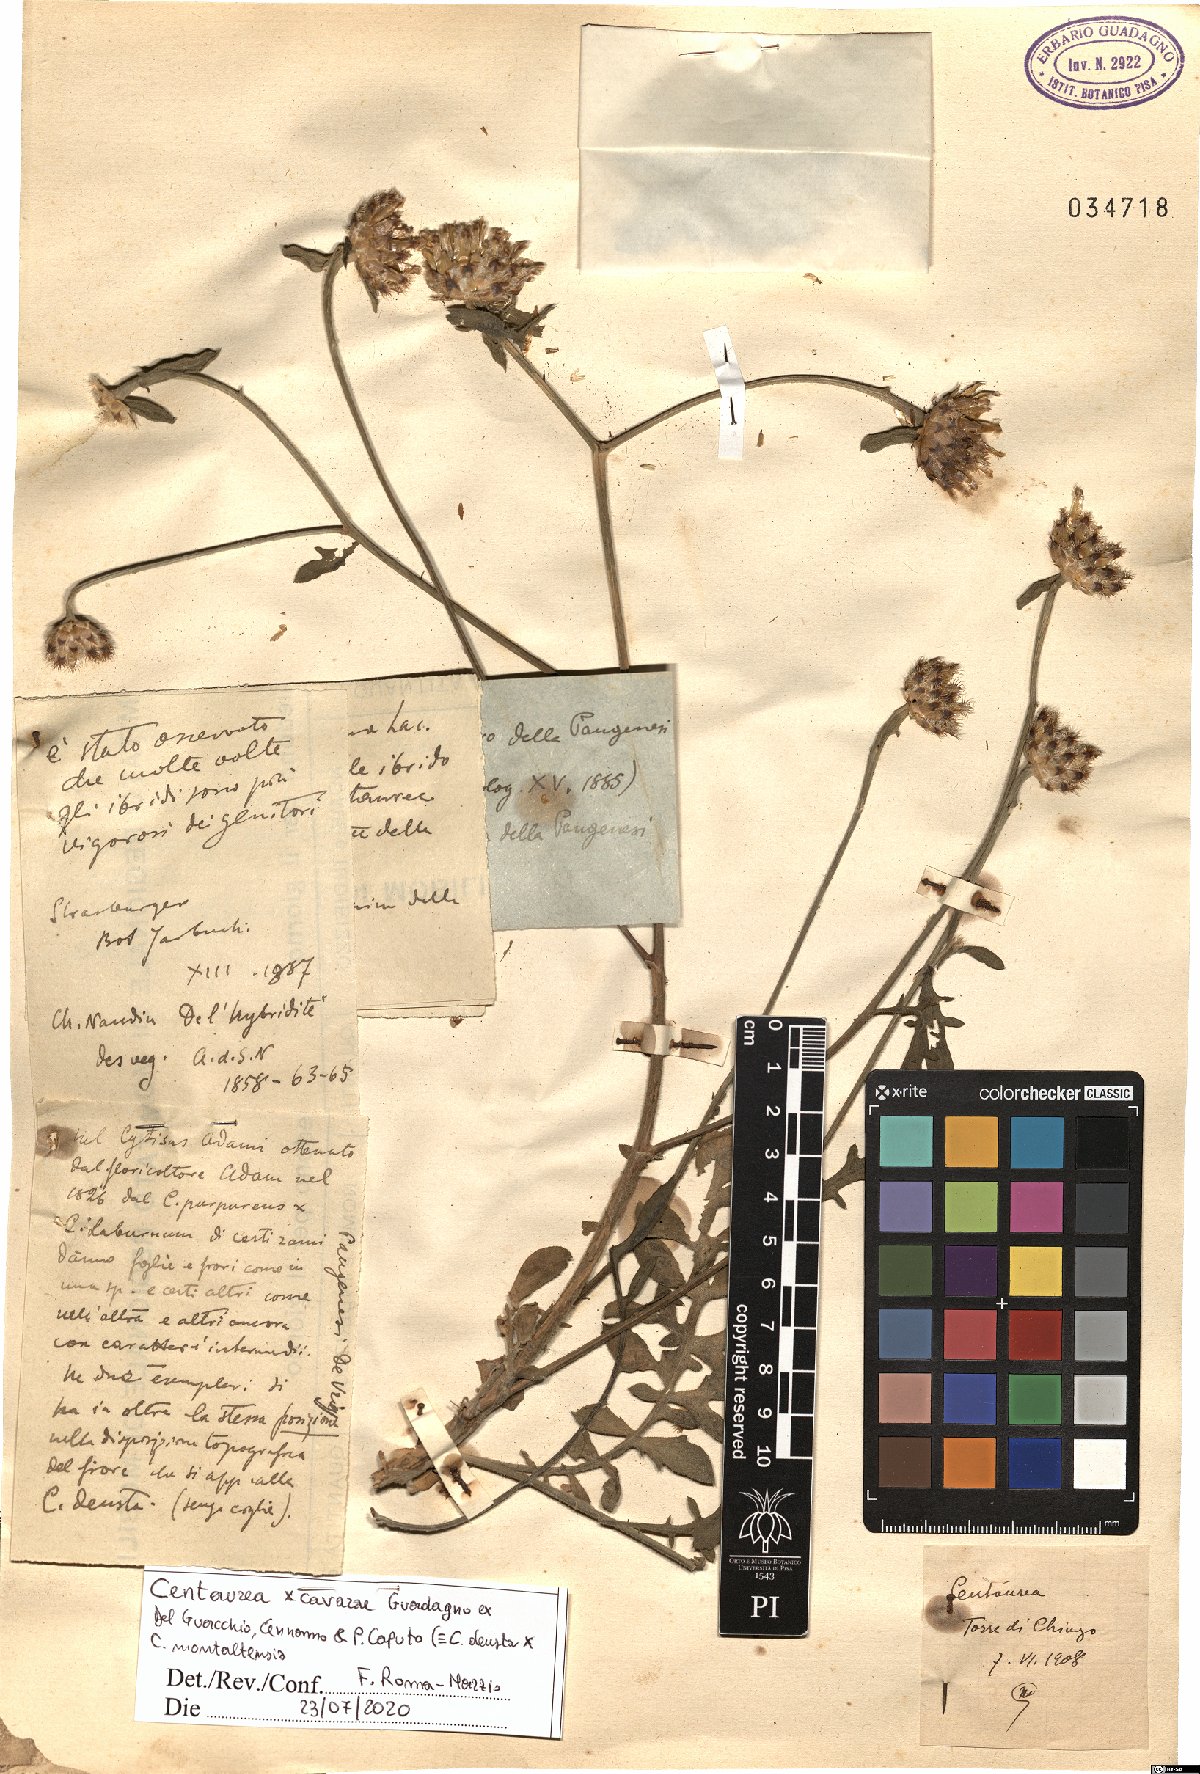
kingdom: Plantae
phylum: Tracheophyta
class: Magnoliopsida
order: Asterales
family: Asteraceae
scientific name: Asteraceae
